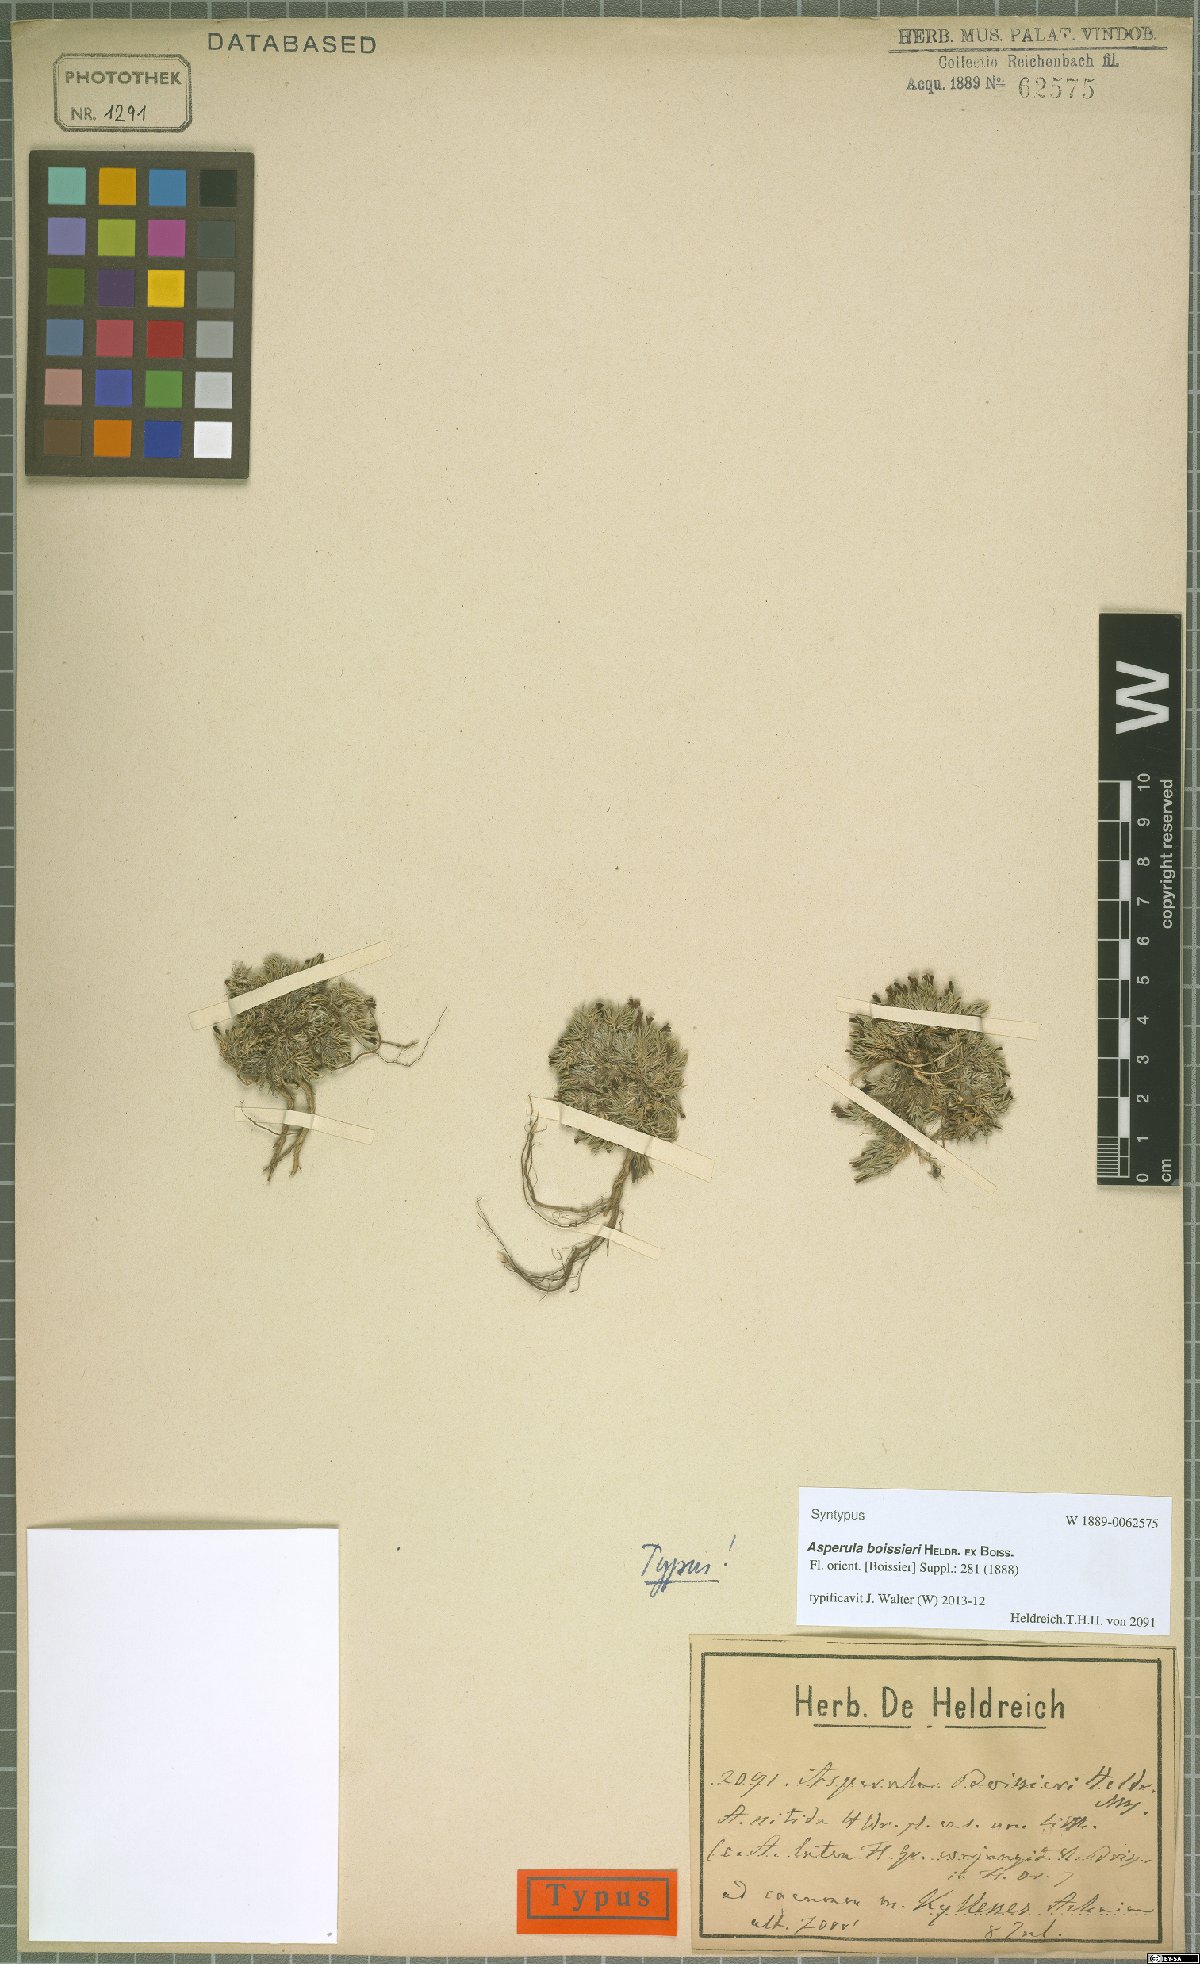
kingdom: Plantae
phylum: Tracheophyta
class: Magnoliopsida
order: Gentianales
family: Rubiaceae
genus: Cynanchica
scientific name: Cynanchica boissieri
